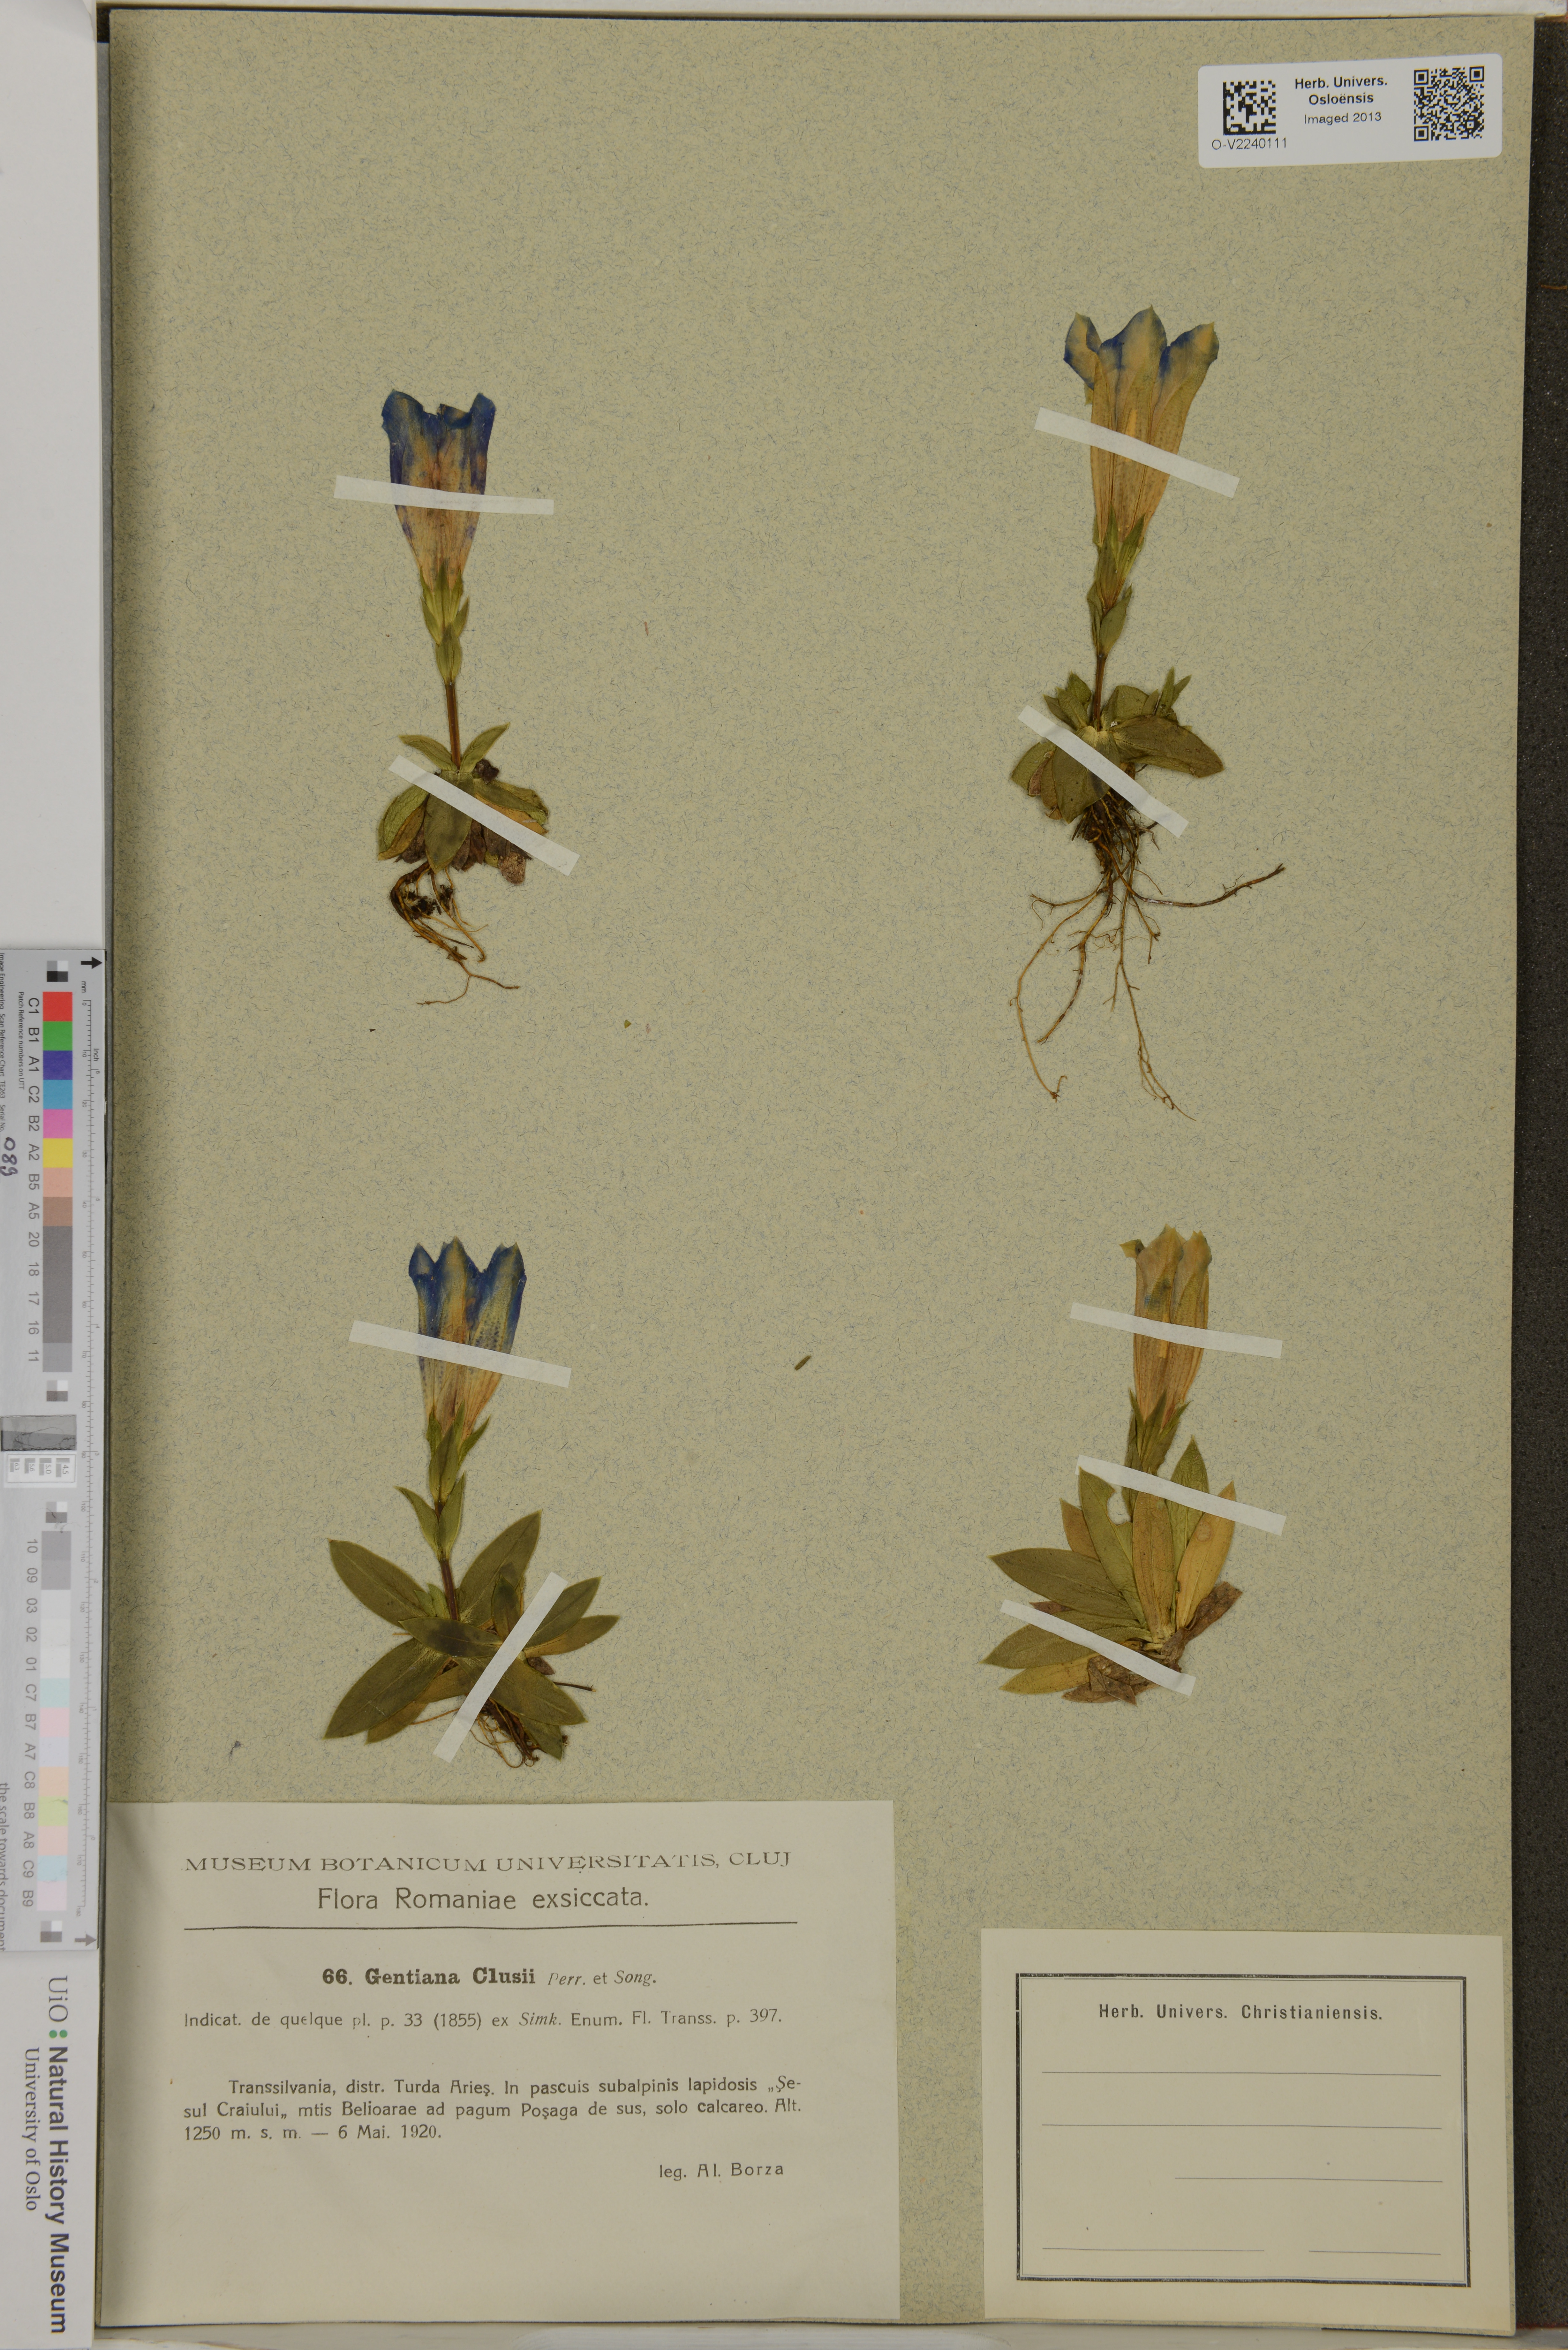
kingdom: Plantae
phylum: Tracheophyta
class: Magnoliopsida
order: Gentianales
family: Gentianaceae
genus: Gentiana
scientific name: Gentiana clusii
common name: Trumpet gentian
